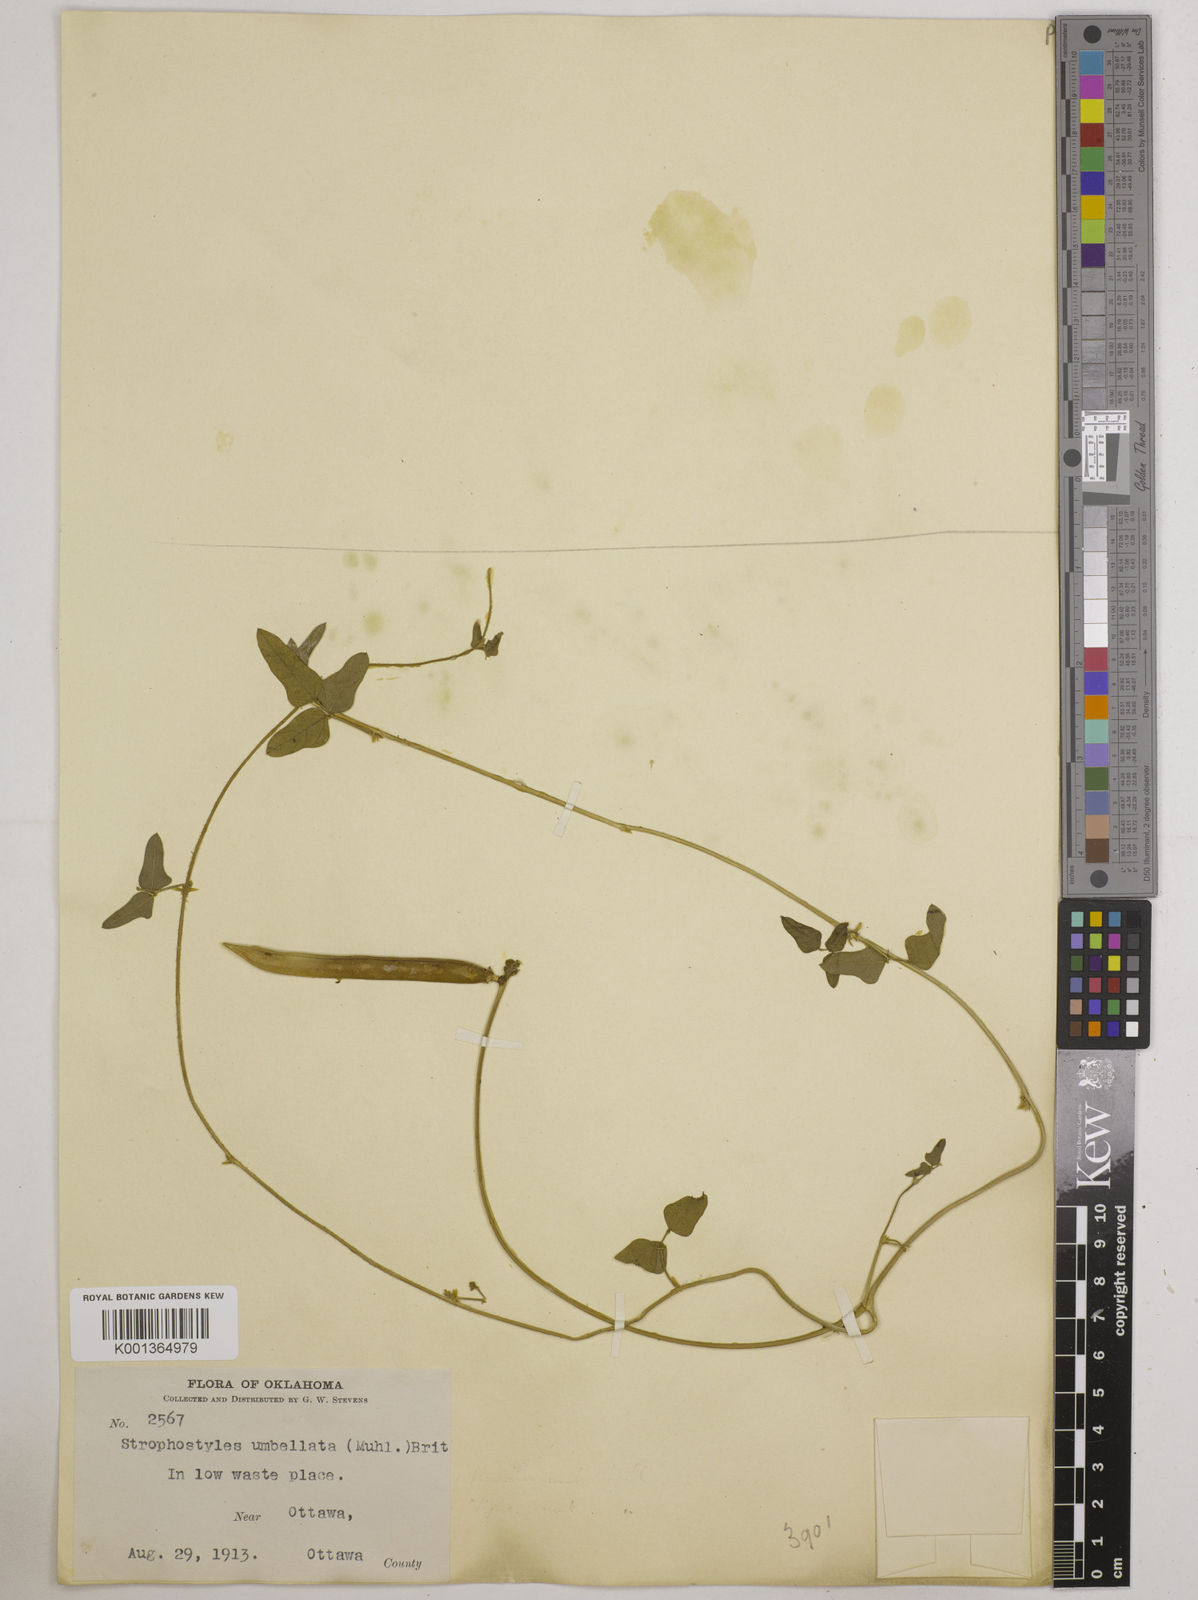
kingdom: Plantae
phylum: Tracheophyta
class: Magnoliopsida
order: Fabales
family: Fabaceae
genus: Strophostyles
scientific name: Strophostyles umbellata
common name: Perennial wild bean
